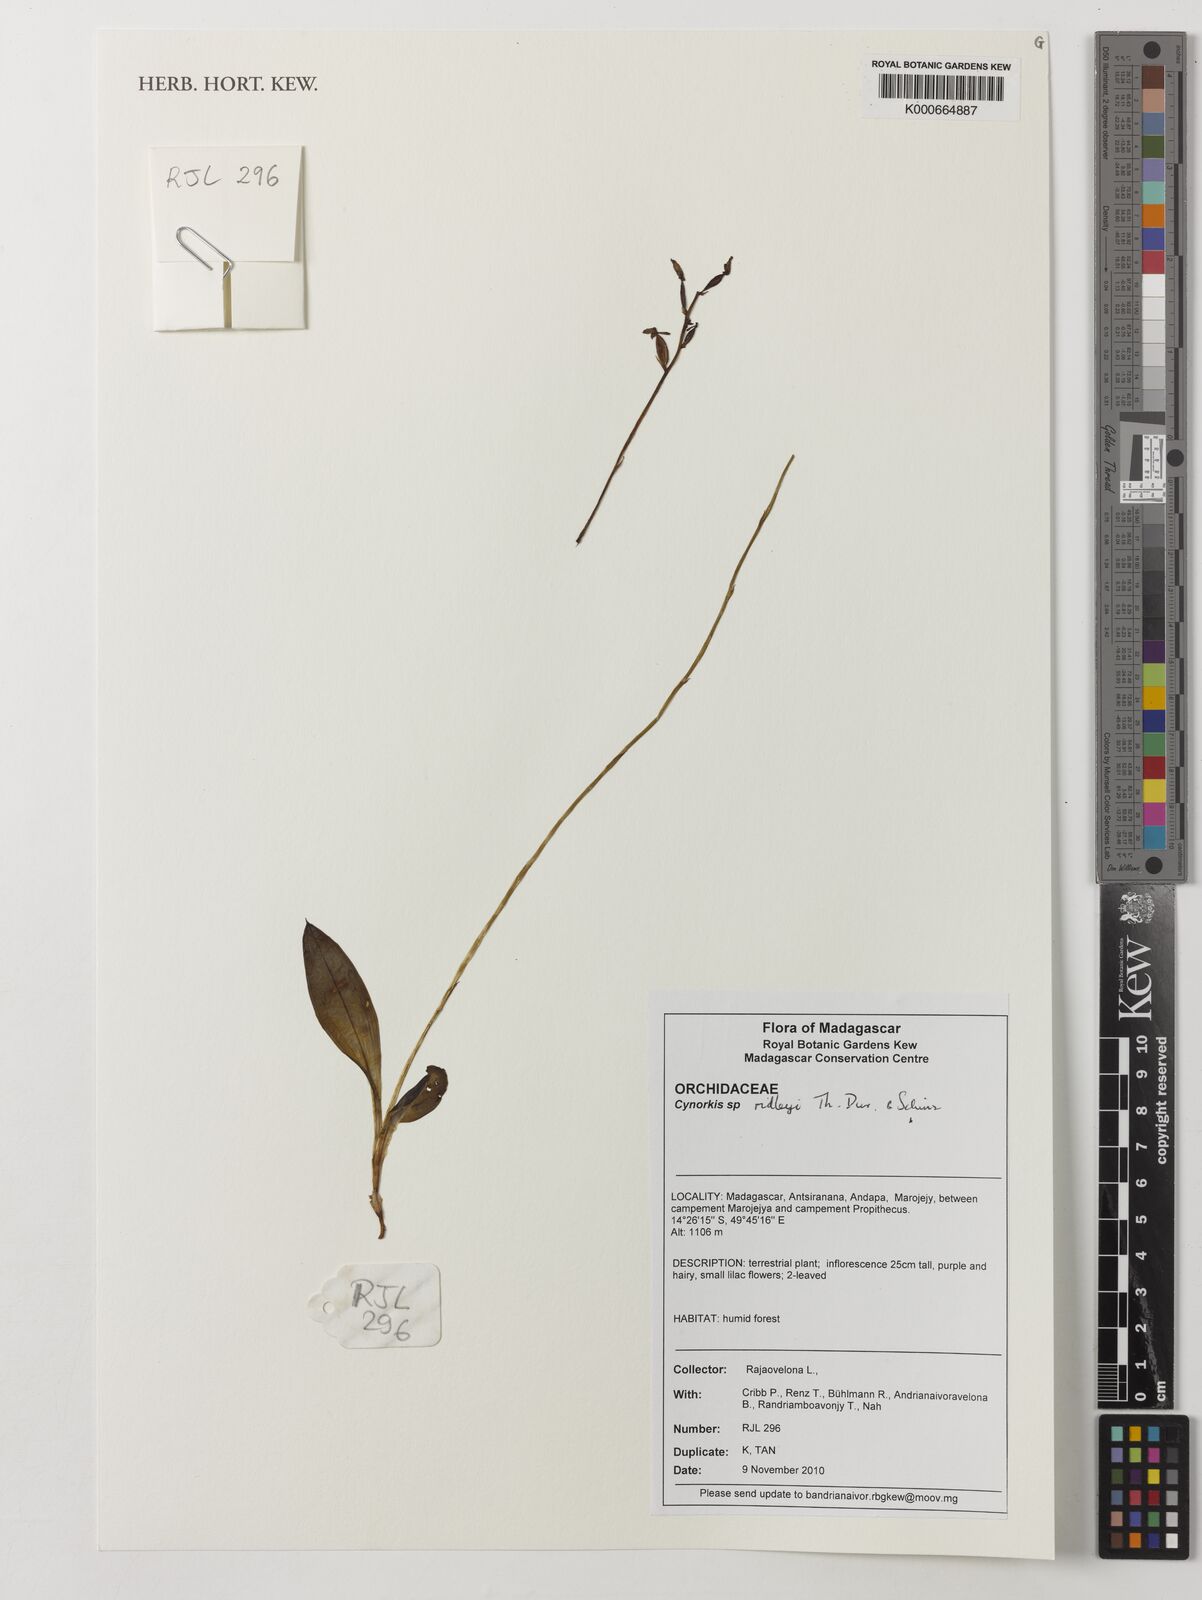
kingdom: Plantae
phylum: Tracheophyta
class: Liliopsida
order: Asparagales
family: Orchidaceae
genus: Cynorkis
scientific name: Cynorkis
